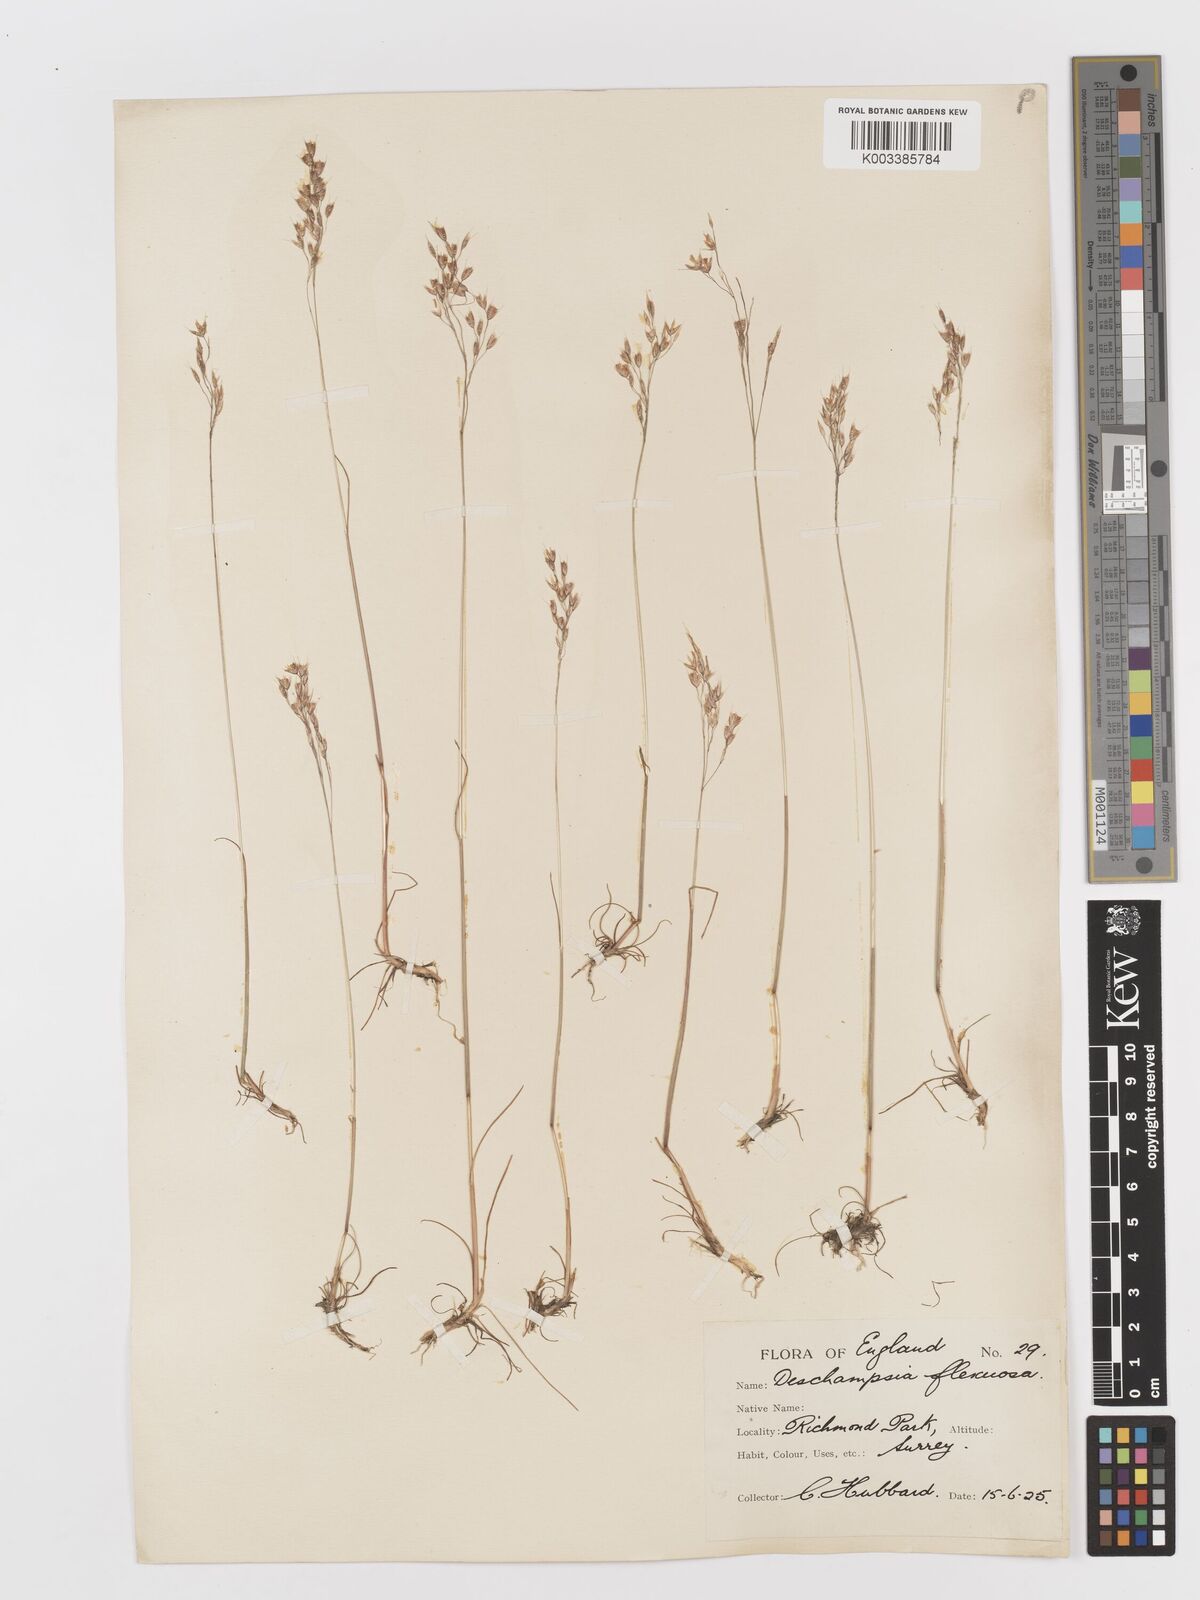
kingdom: Plantae
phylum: Tracheophyta
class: Liliopsida
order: Poales
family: Poaceae
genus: Avenella
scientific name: Avenella flexuosa
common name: Wavy hairgrass
